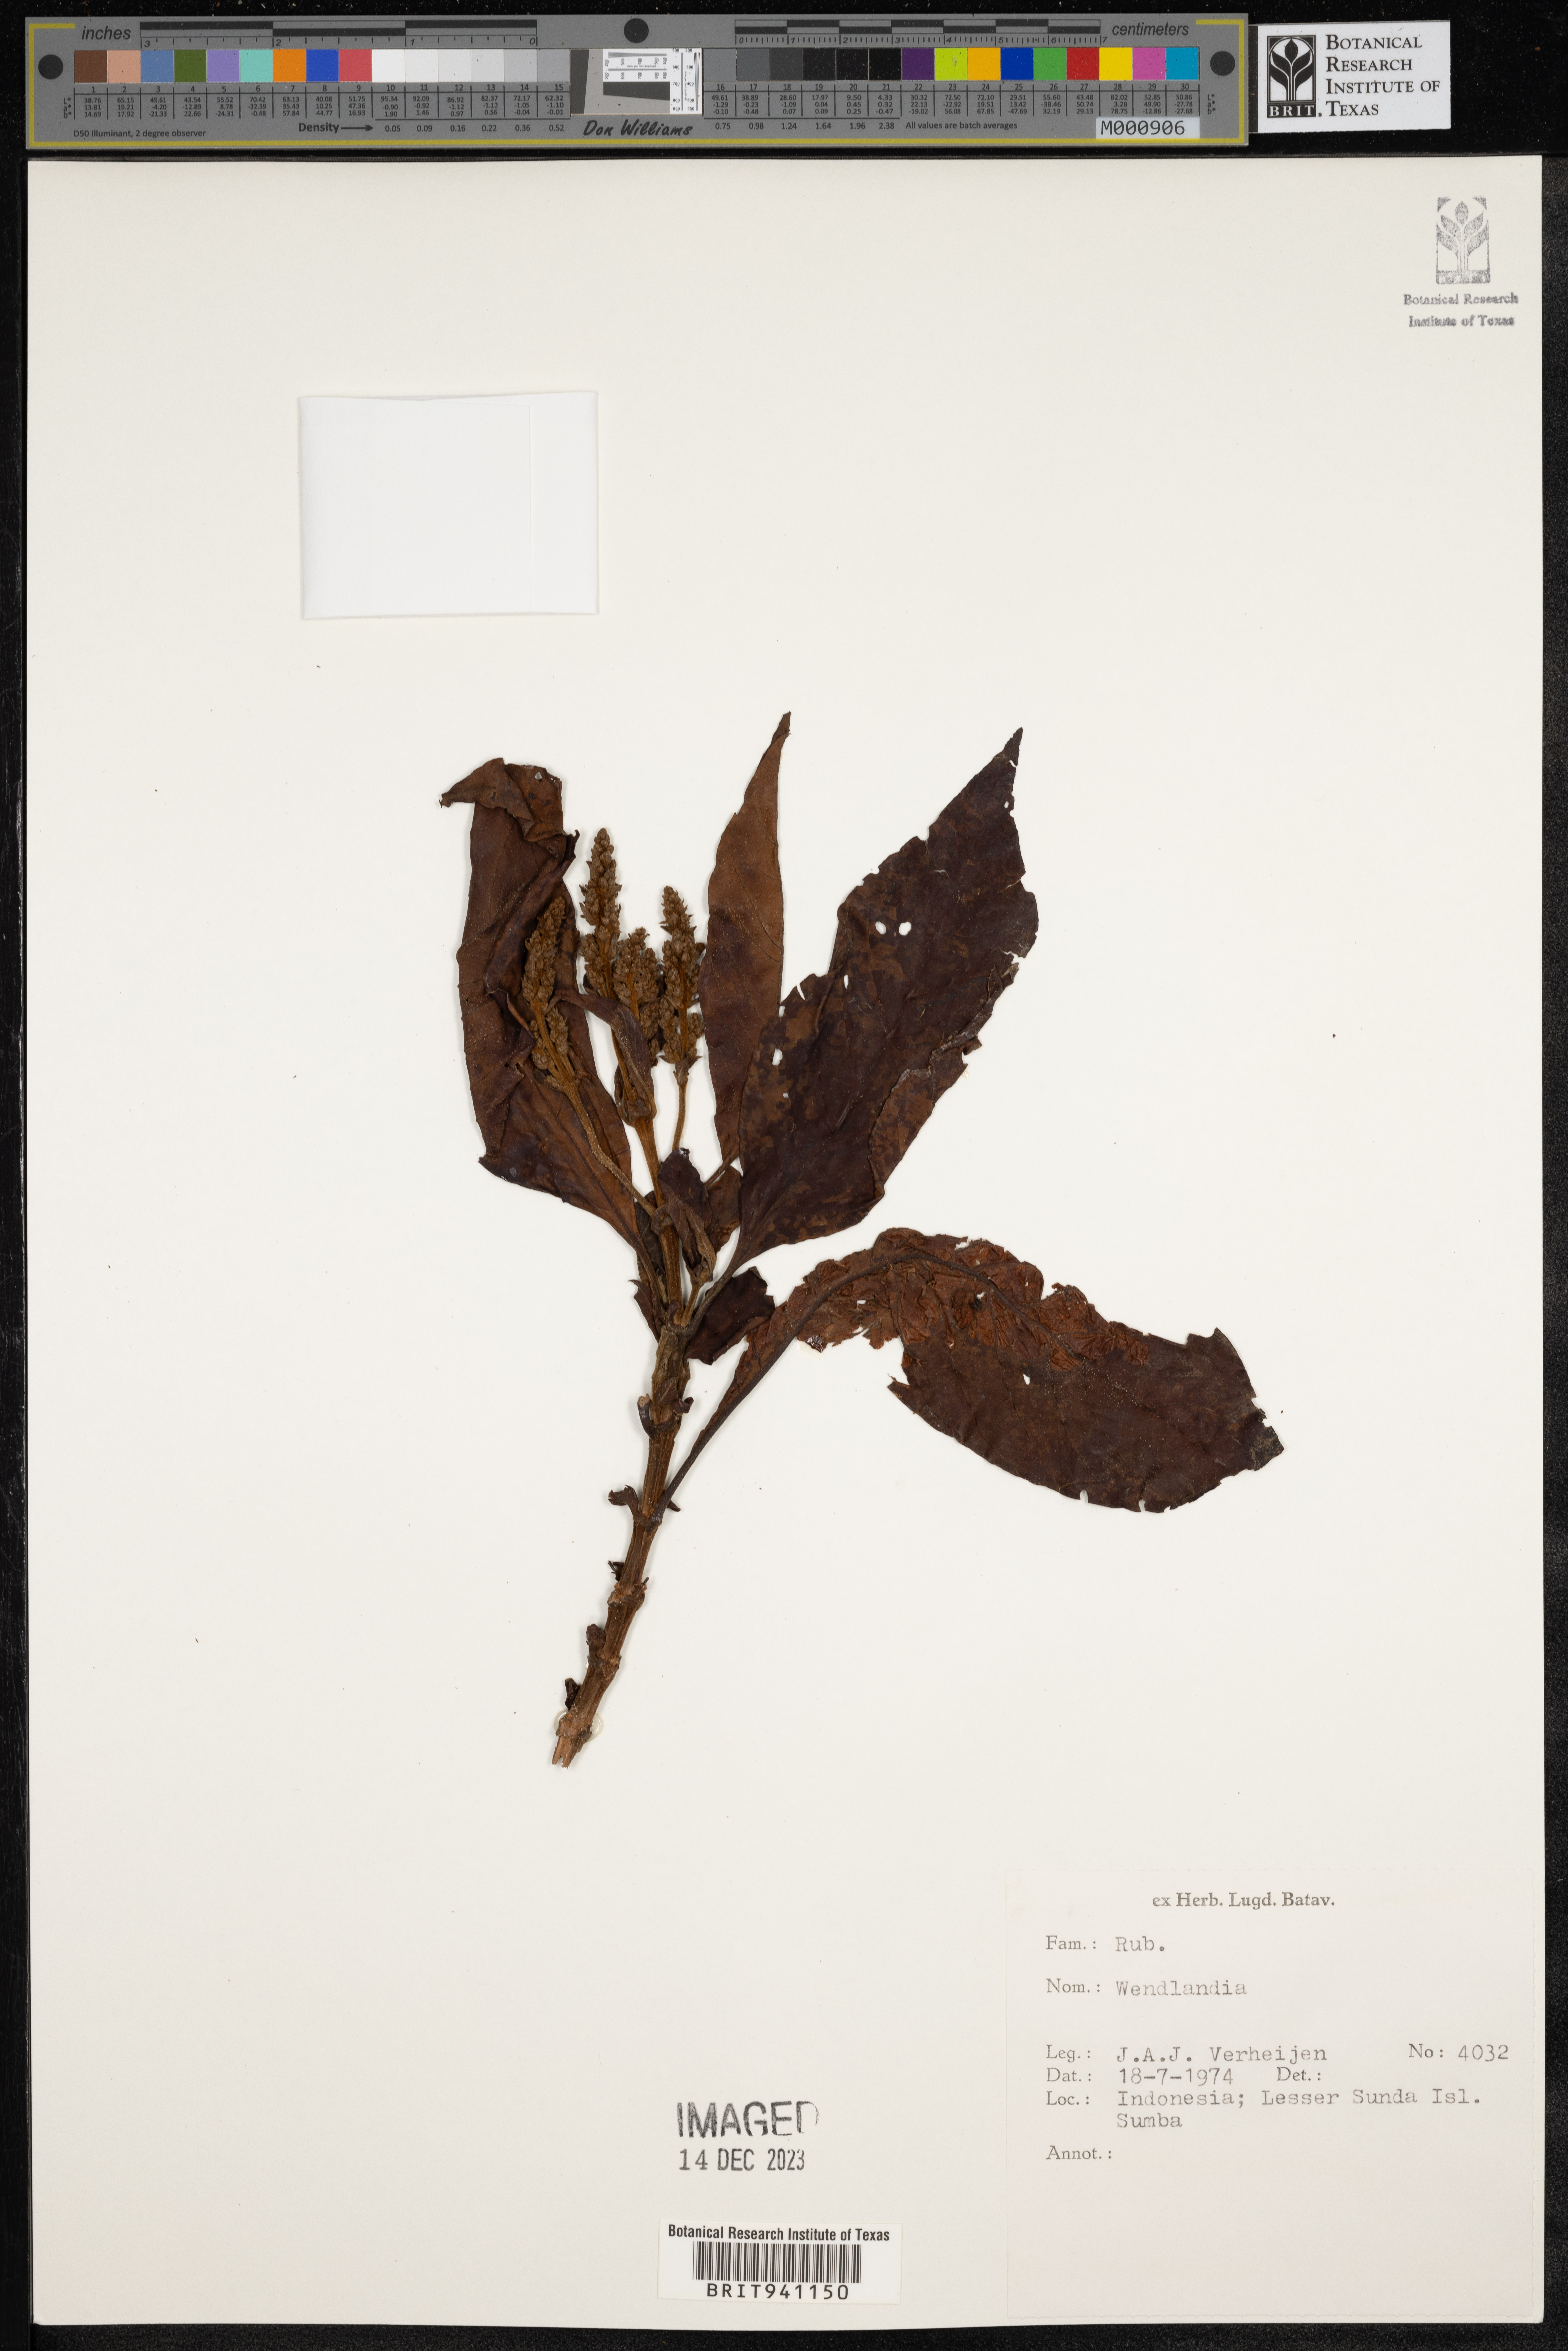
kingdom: Plantae
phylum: Tracheophyta
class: Magnoliopsida
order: Gentianales
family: Rubiaceae
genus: Wendlandia
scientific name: Wendlandia
